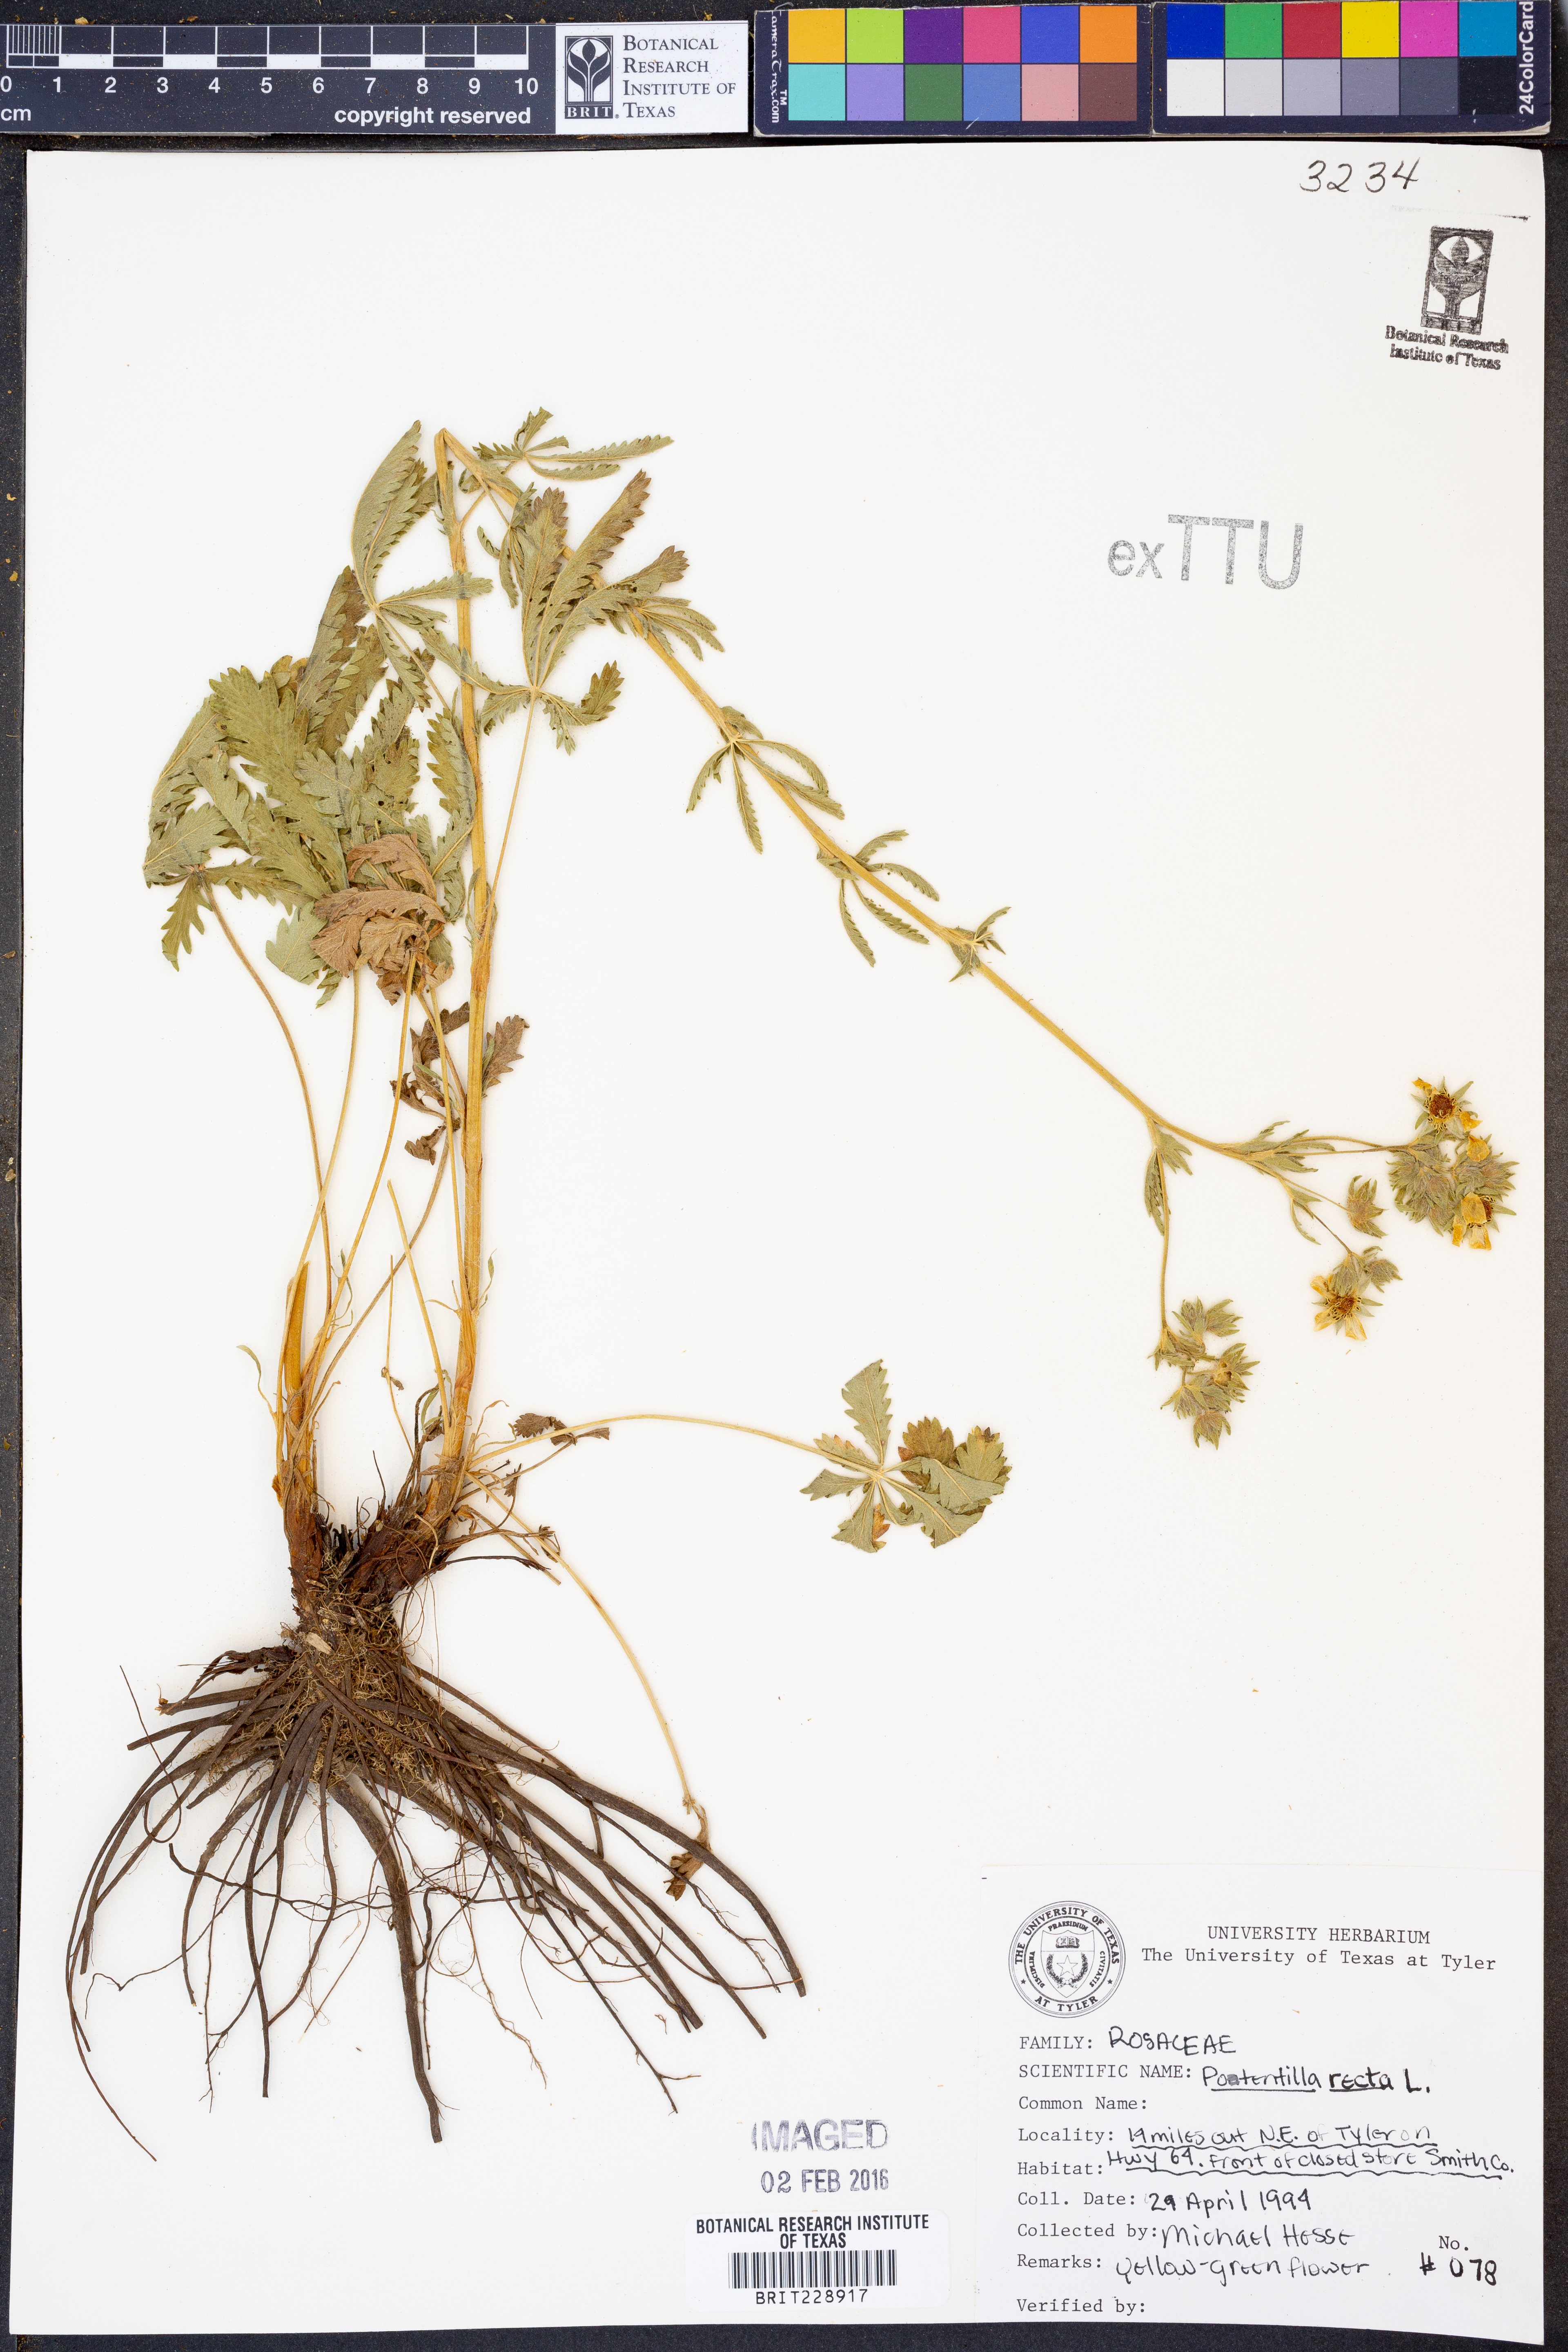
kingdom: Plantae
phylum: Tracheophyta
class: Magnoliopsida
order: Rosales
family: Rosaceae
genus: Potentilla
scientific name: Potentilla recta
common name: Sulphur cinquefoil
